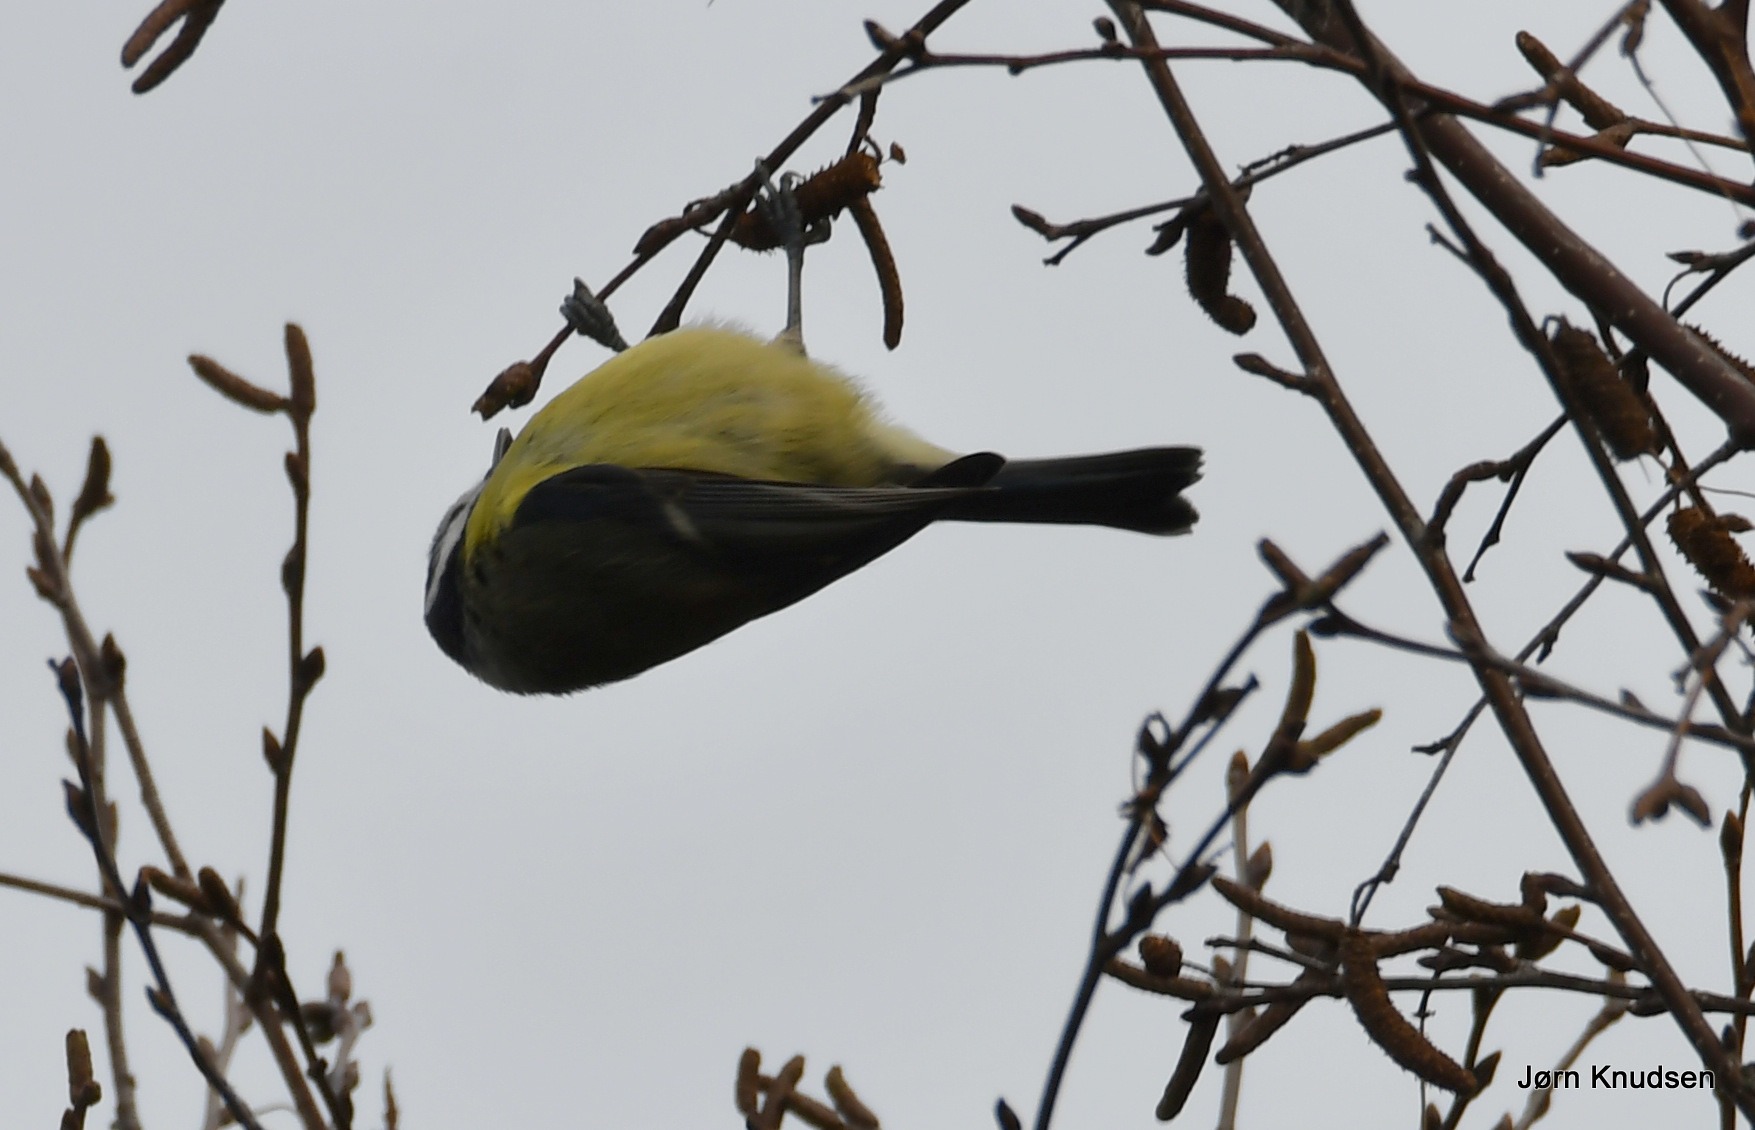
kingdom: Animalia
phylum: Chordata
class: Aves
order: Passeriformes
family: Paridae
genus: Cyanistes
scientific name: Cyanistes caeruleus
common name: Blåmejse
